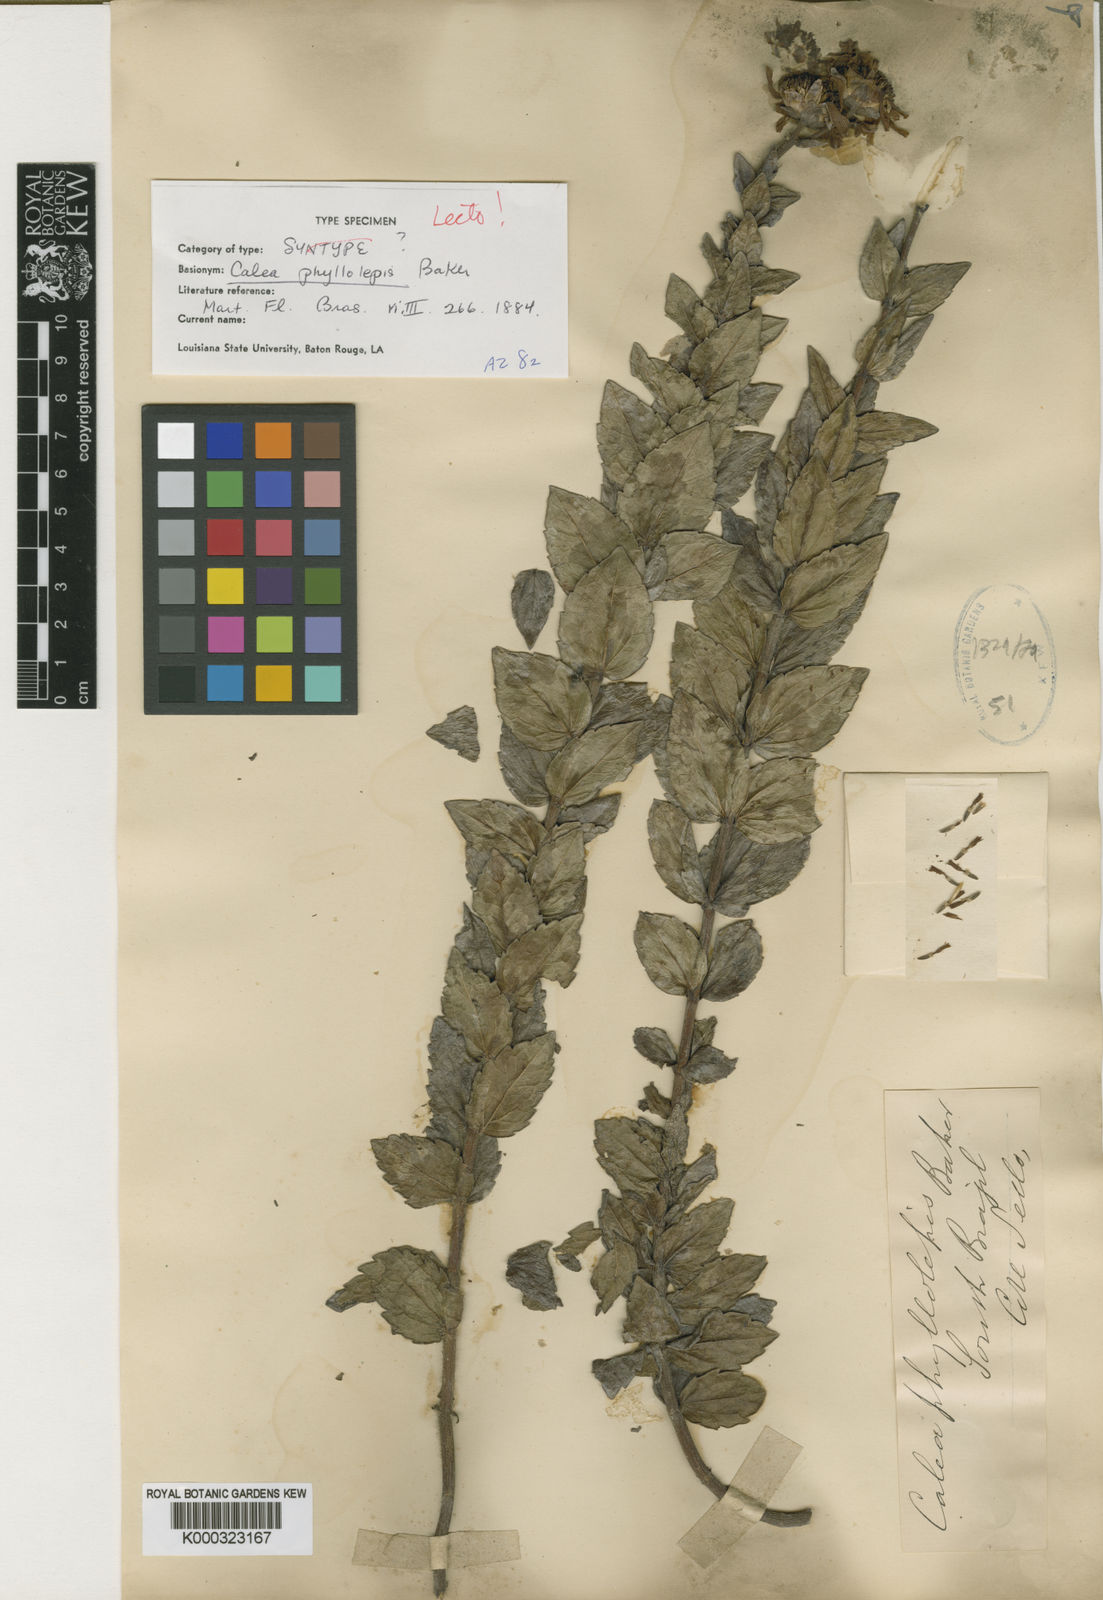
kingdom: Plantae
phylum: Tracheophyta
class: Magnoliopsida
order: Asterales
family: Asteraceae
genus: Calea
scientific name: Calea phyllolepis
